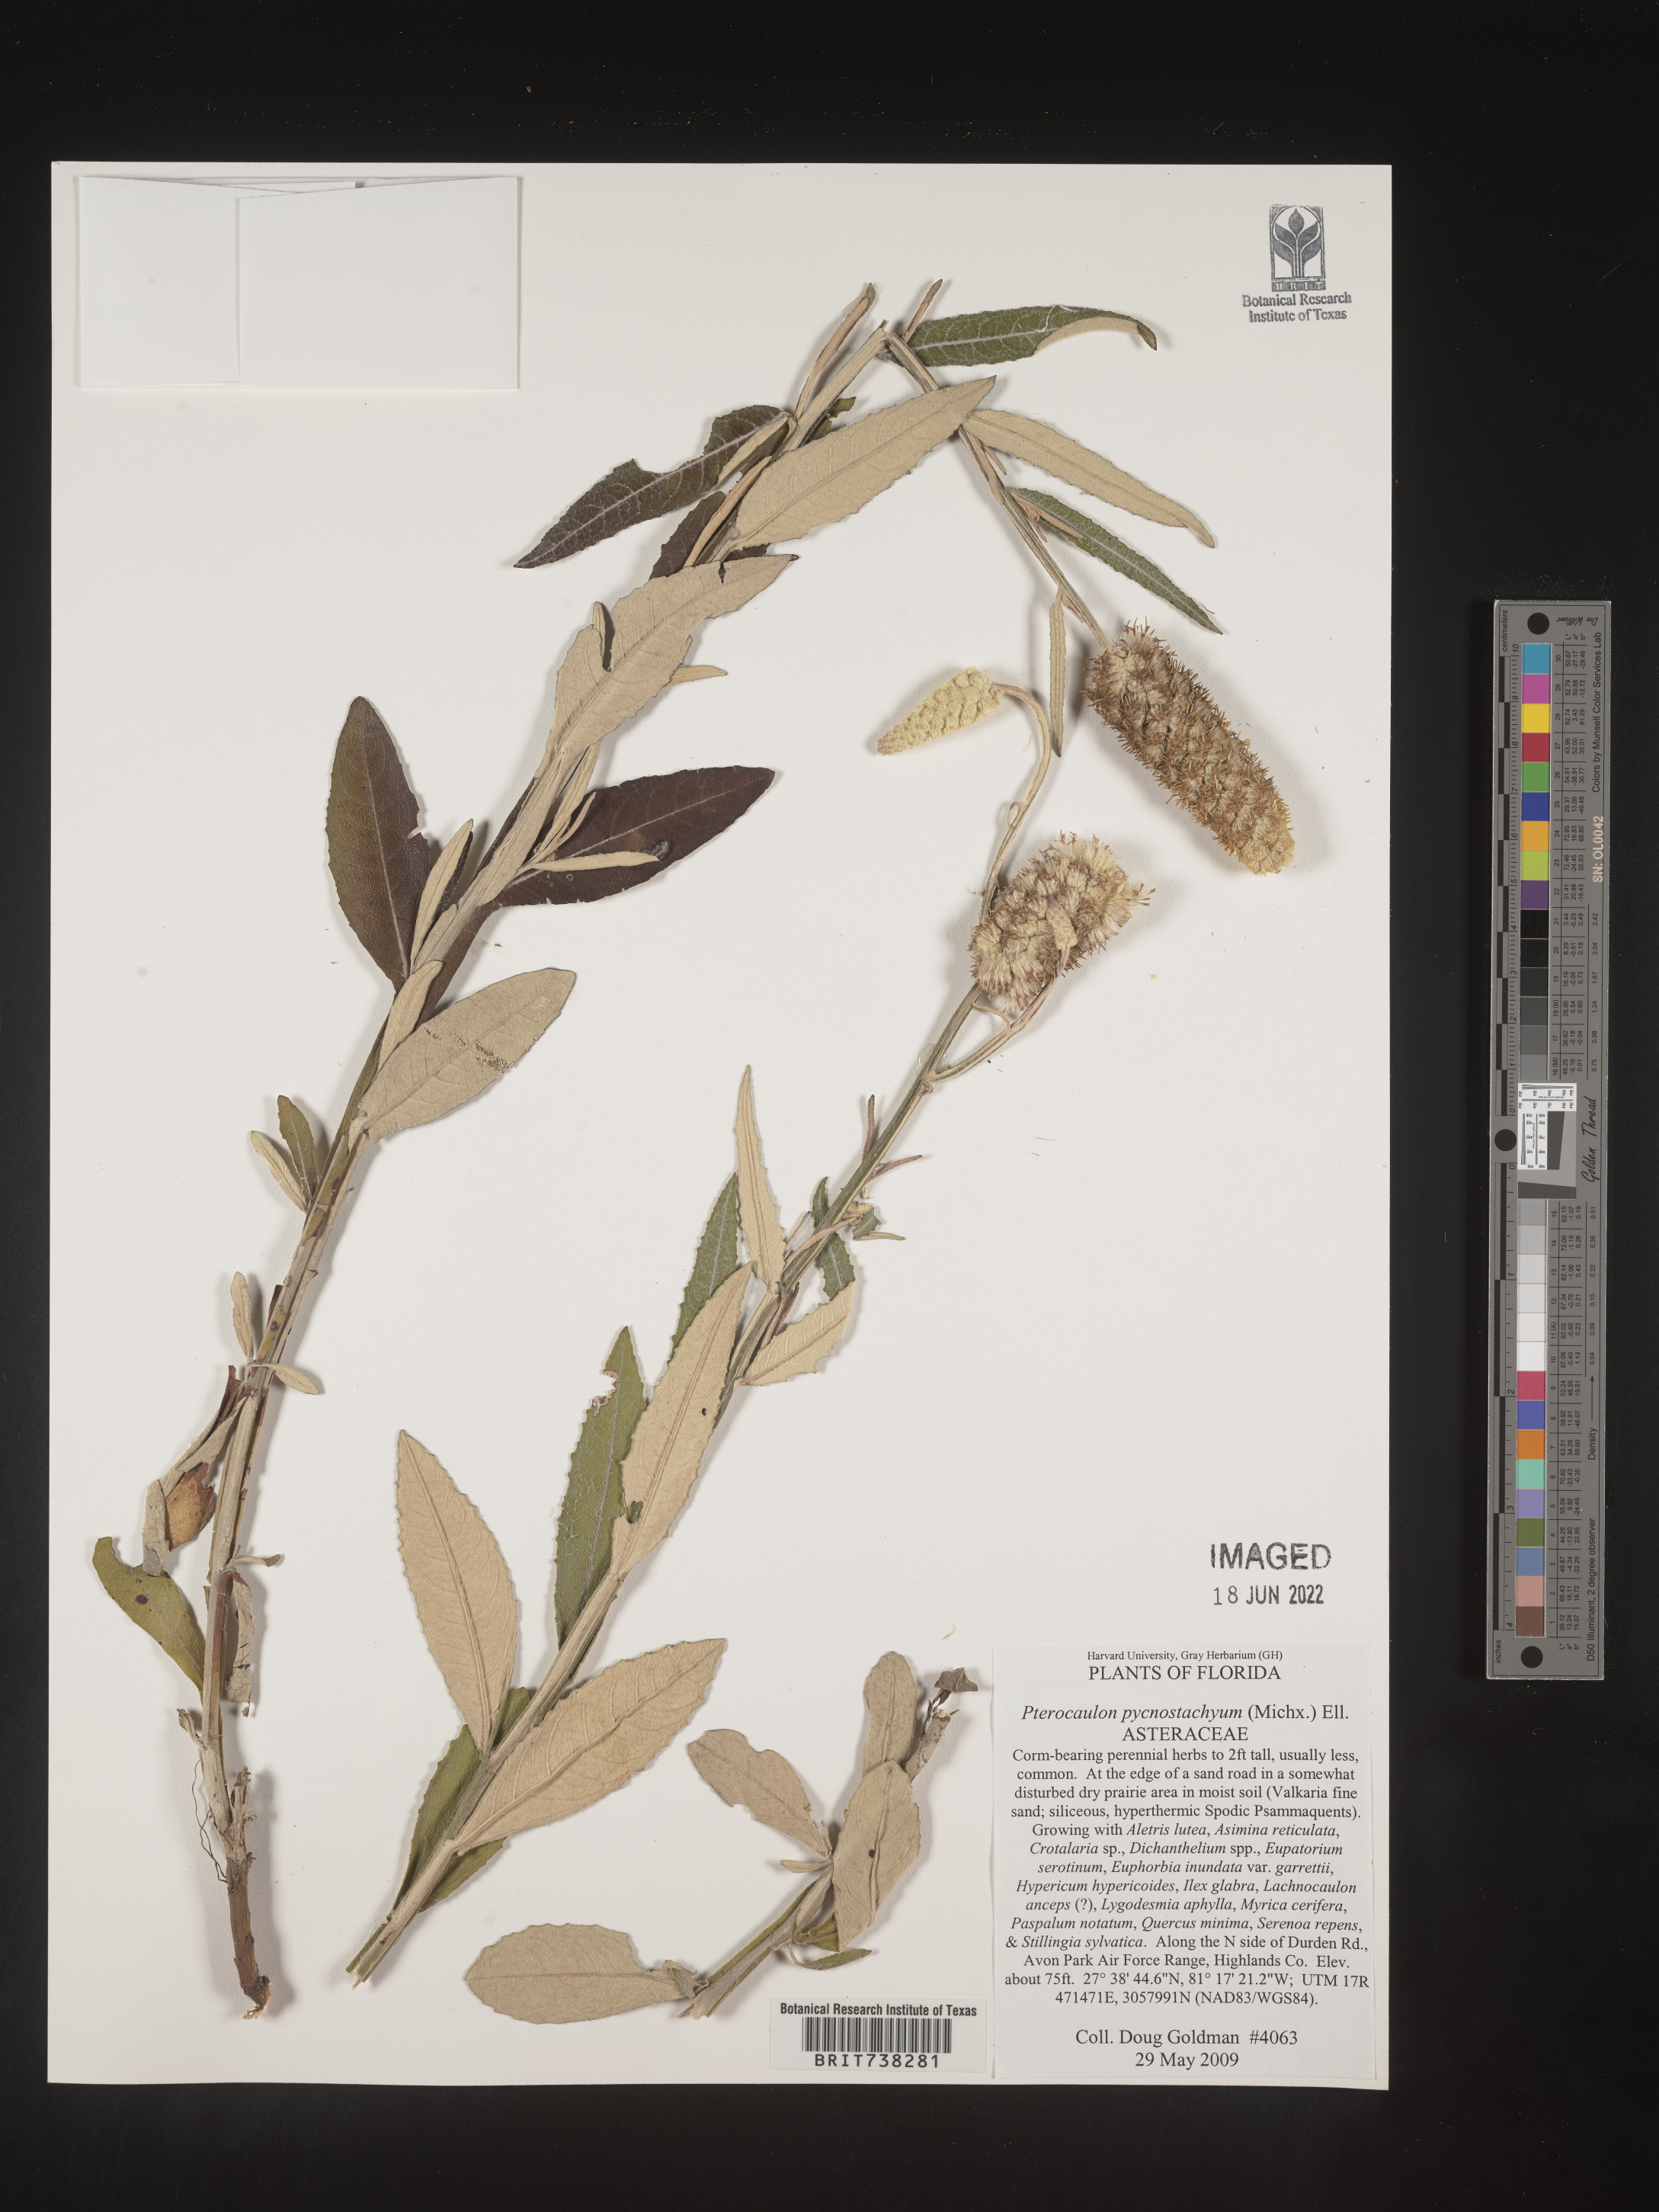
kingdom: Plantae
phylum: Tracheophyta
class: Magnoliopsida
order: Asterales
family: Asteraceae
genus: Pterocaulon
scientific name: Pterocaulon pycnostachyum
